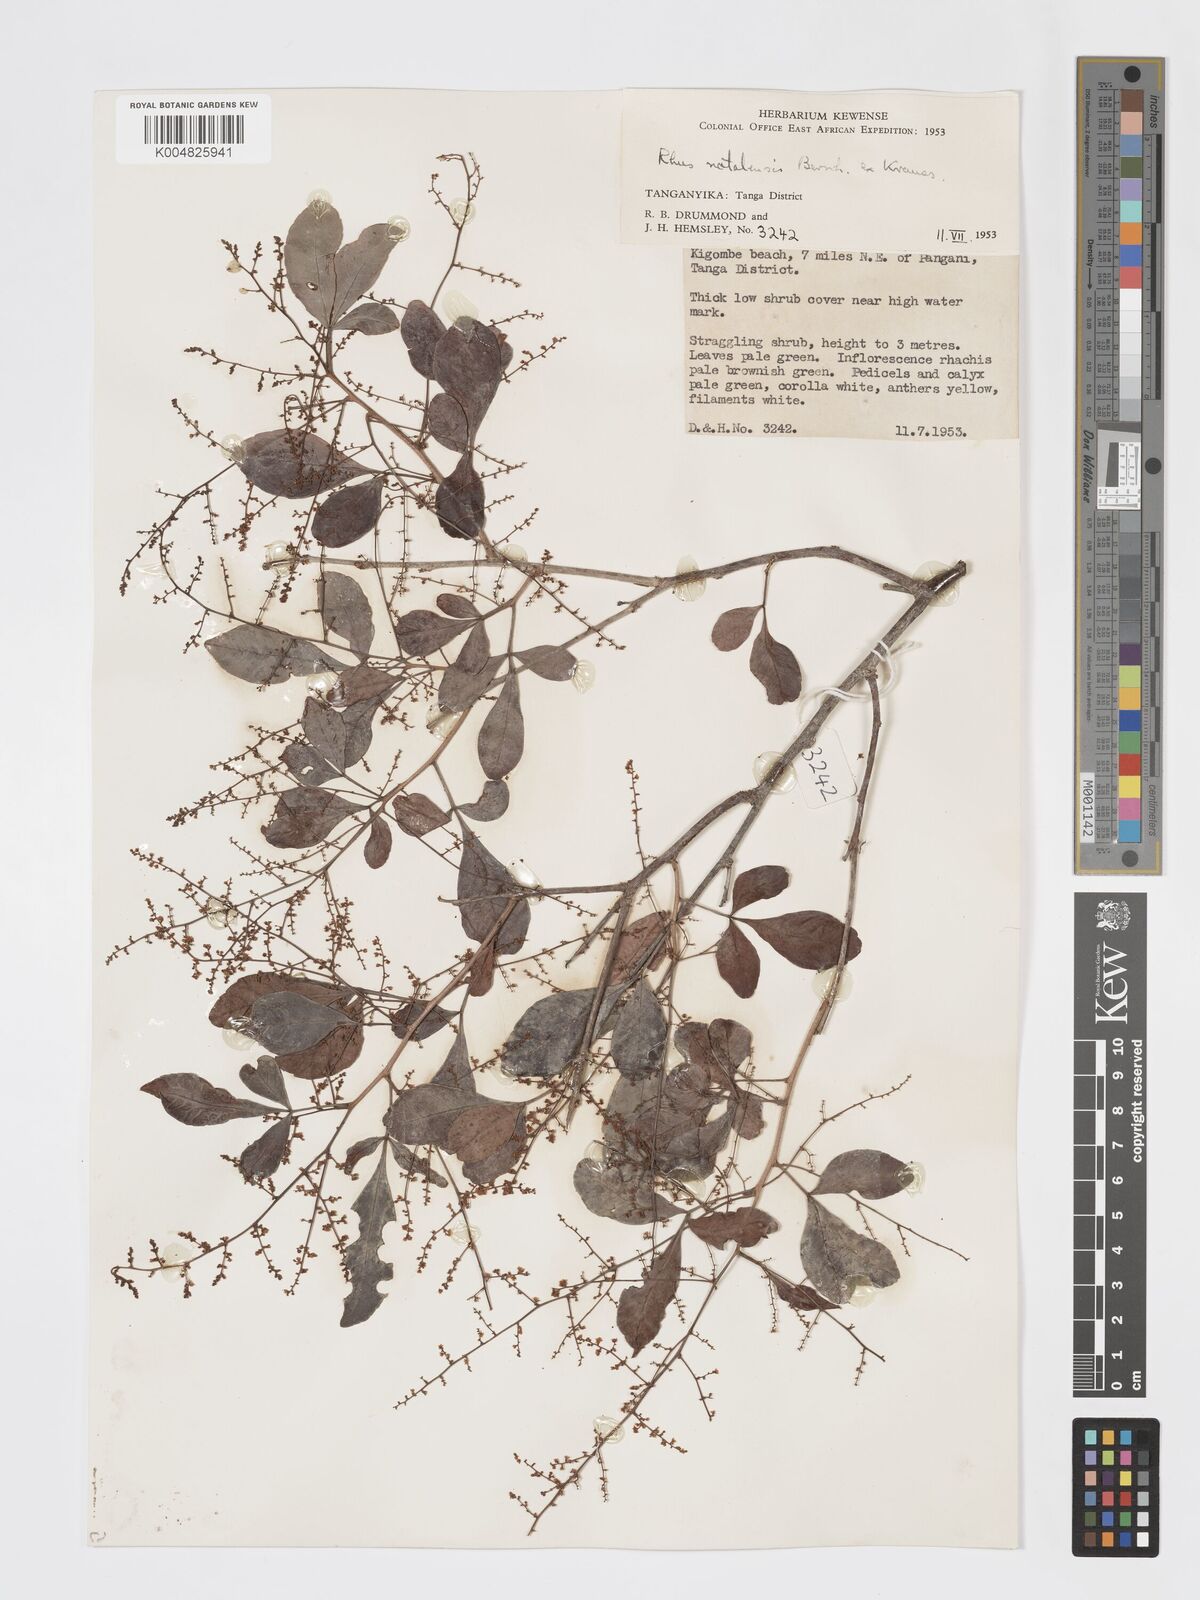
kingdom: Plantae
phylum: Tracheophyta
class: Magnoliopsida
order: Sapindales
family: Anacardiaceae
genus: Searsia
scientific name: Searsia natalensis
